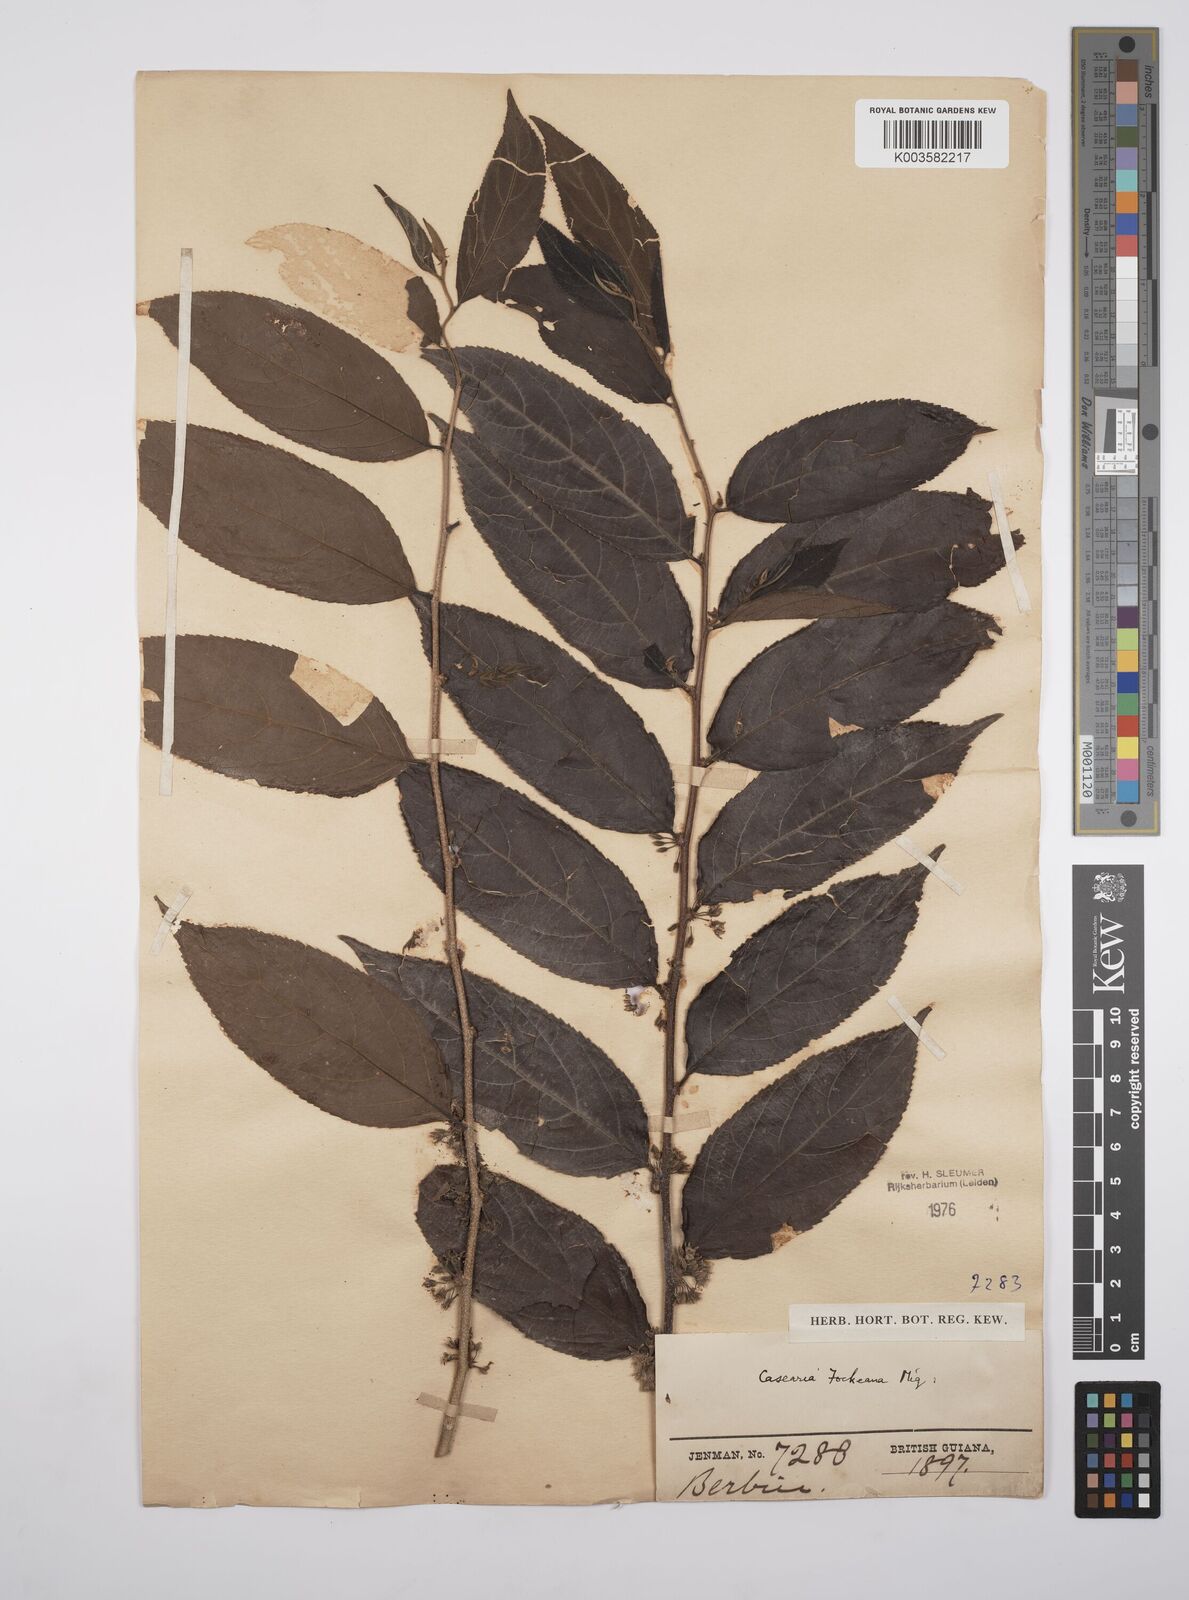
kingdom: Plantae
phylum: Tracheophyta
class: Magnoliopsida
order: Malpighiales
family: Salicaceae
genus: Casearia
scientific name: Casearia mariquitensis
